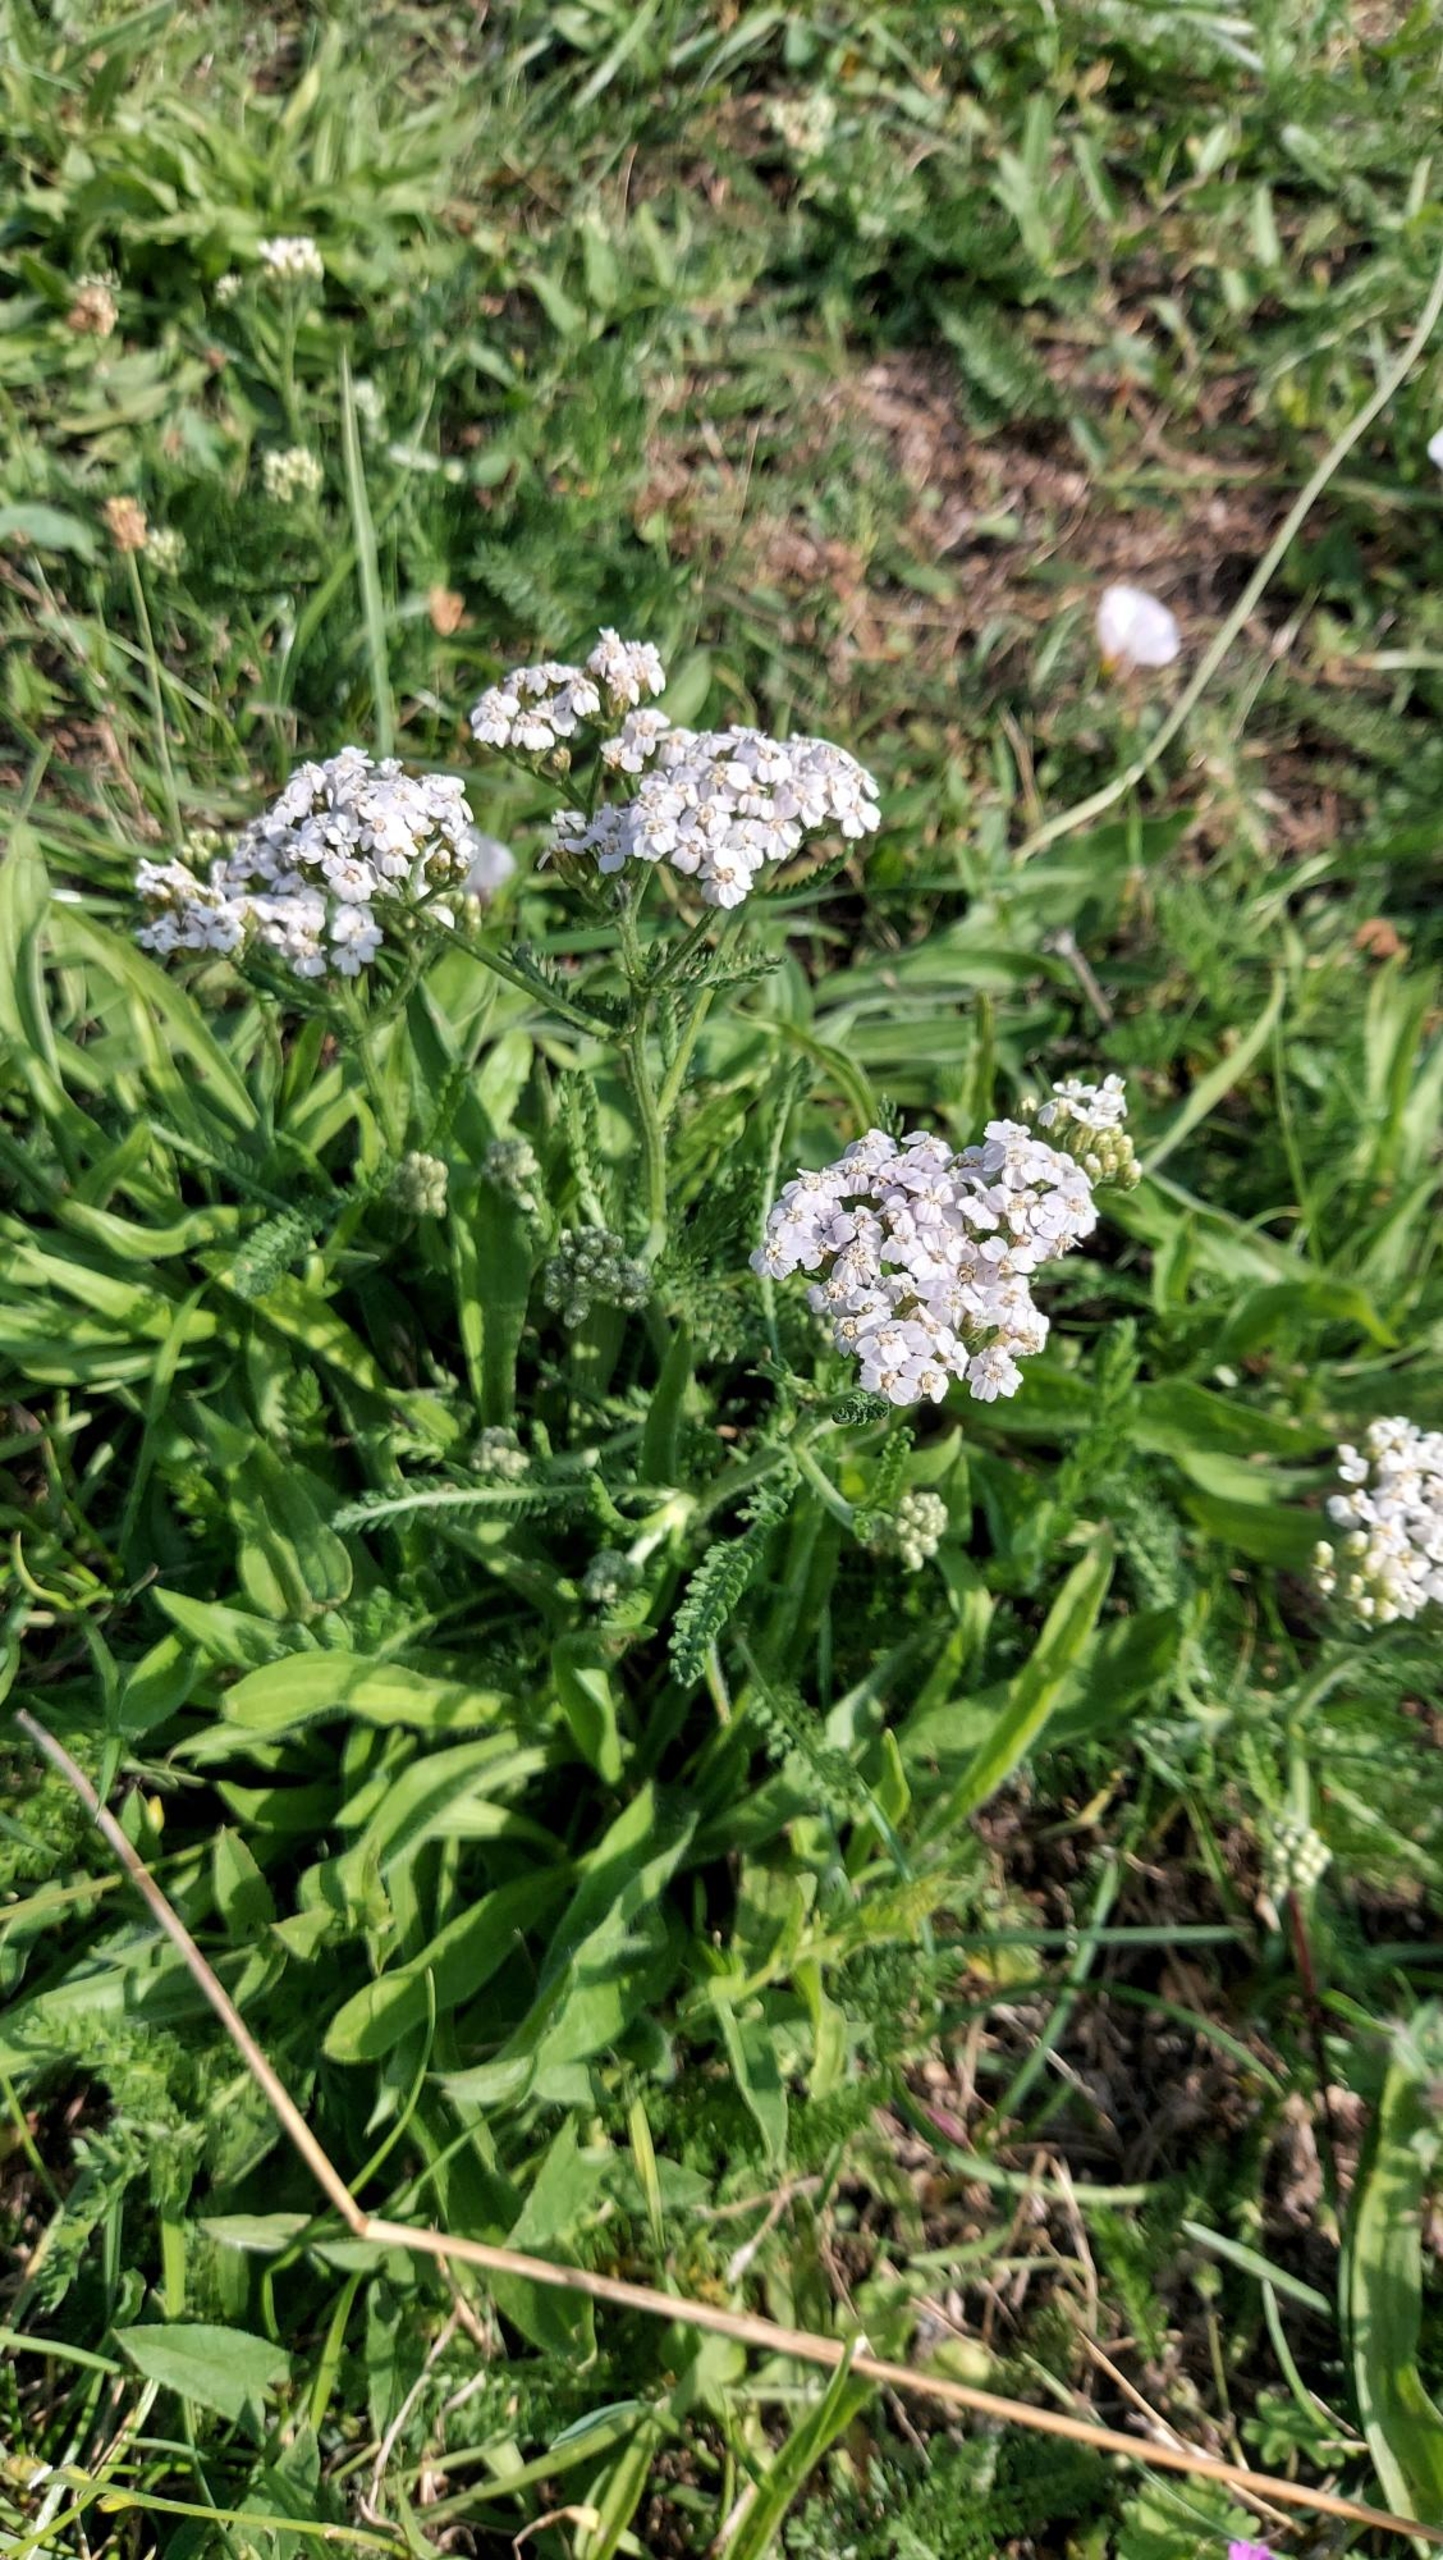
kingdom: Plantae
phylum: Tracheophyta
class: Magnoliopsida
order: Asterales
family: Asteraceae
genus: Achillea
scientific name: Achillea millefolium
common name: Almindelig røllike
